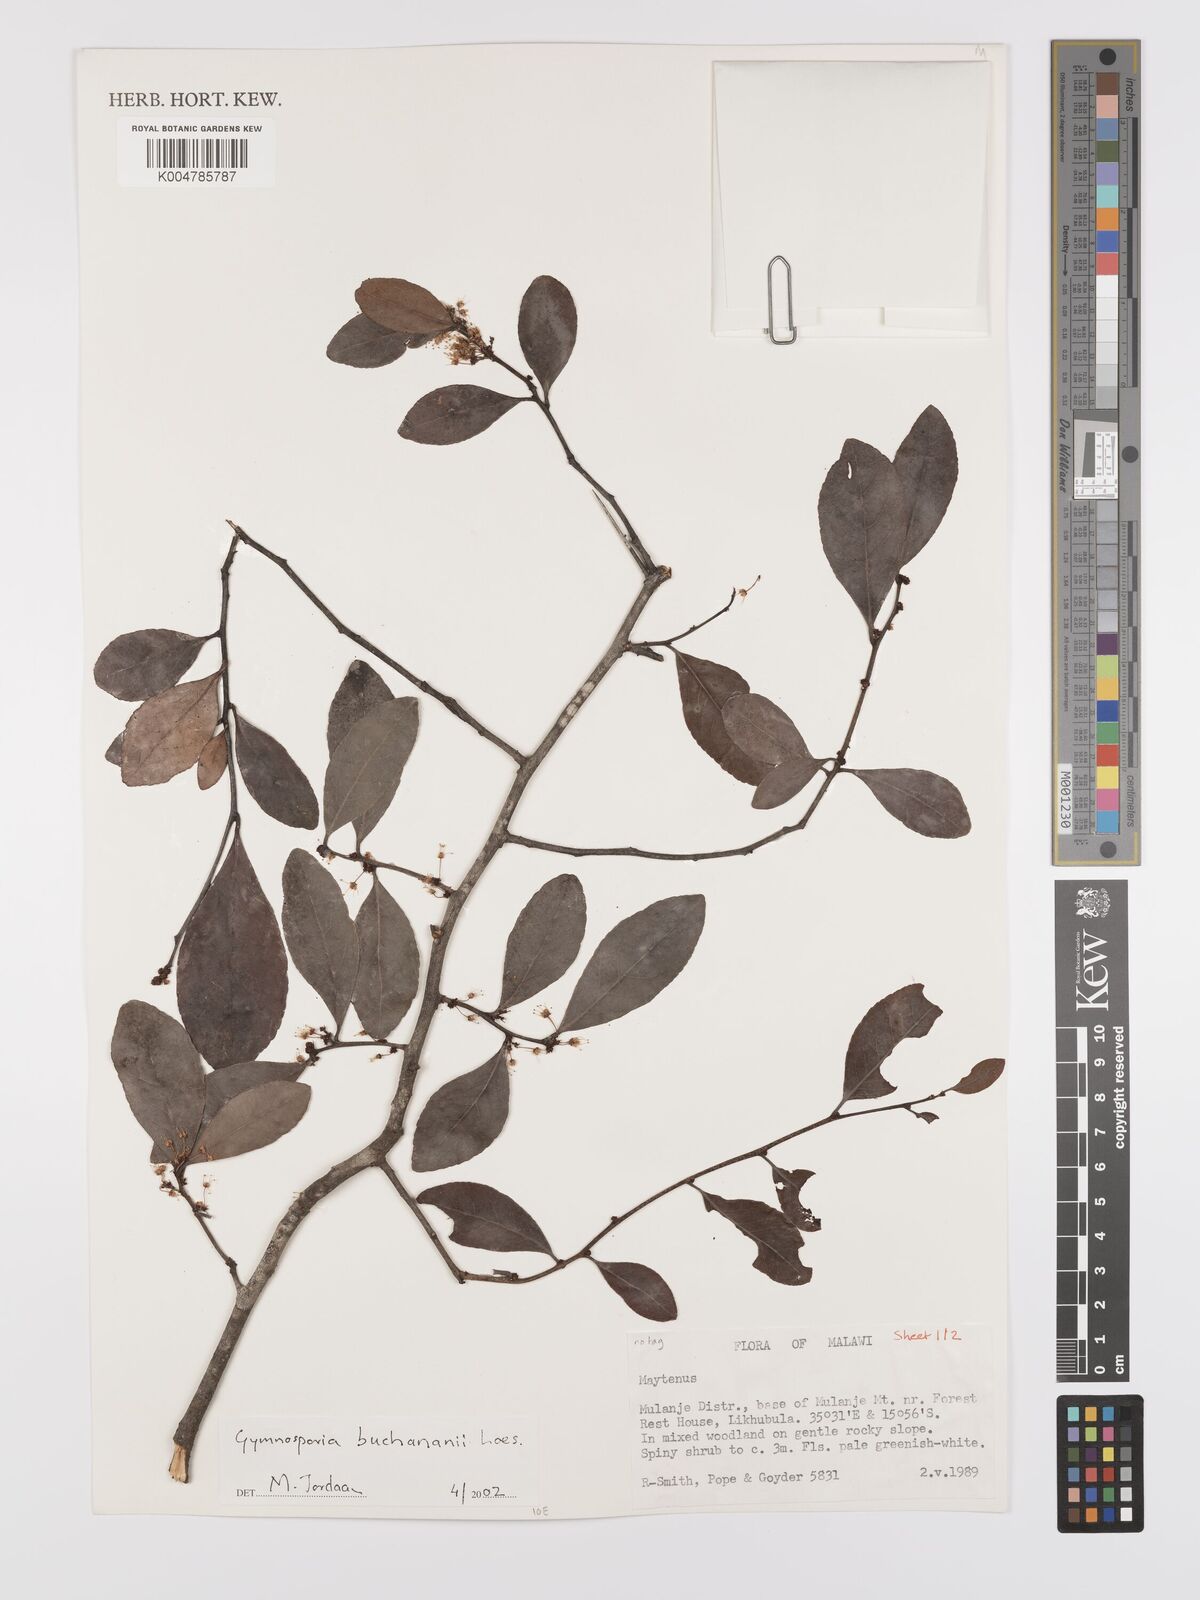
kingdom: Plantae
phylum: Tracheophyta
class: Magnoliopsida
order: Celastrales
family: Celastraceae
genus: Gymnosporia
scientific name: Gymnosporia buchananii
